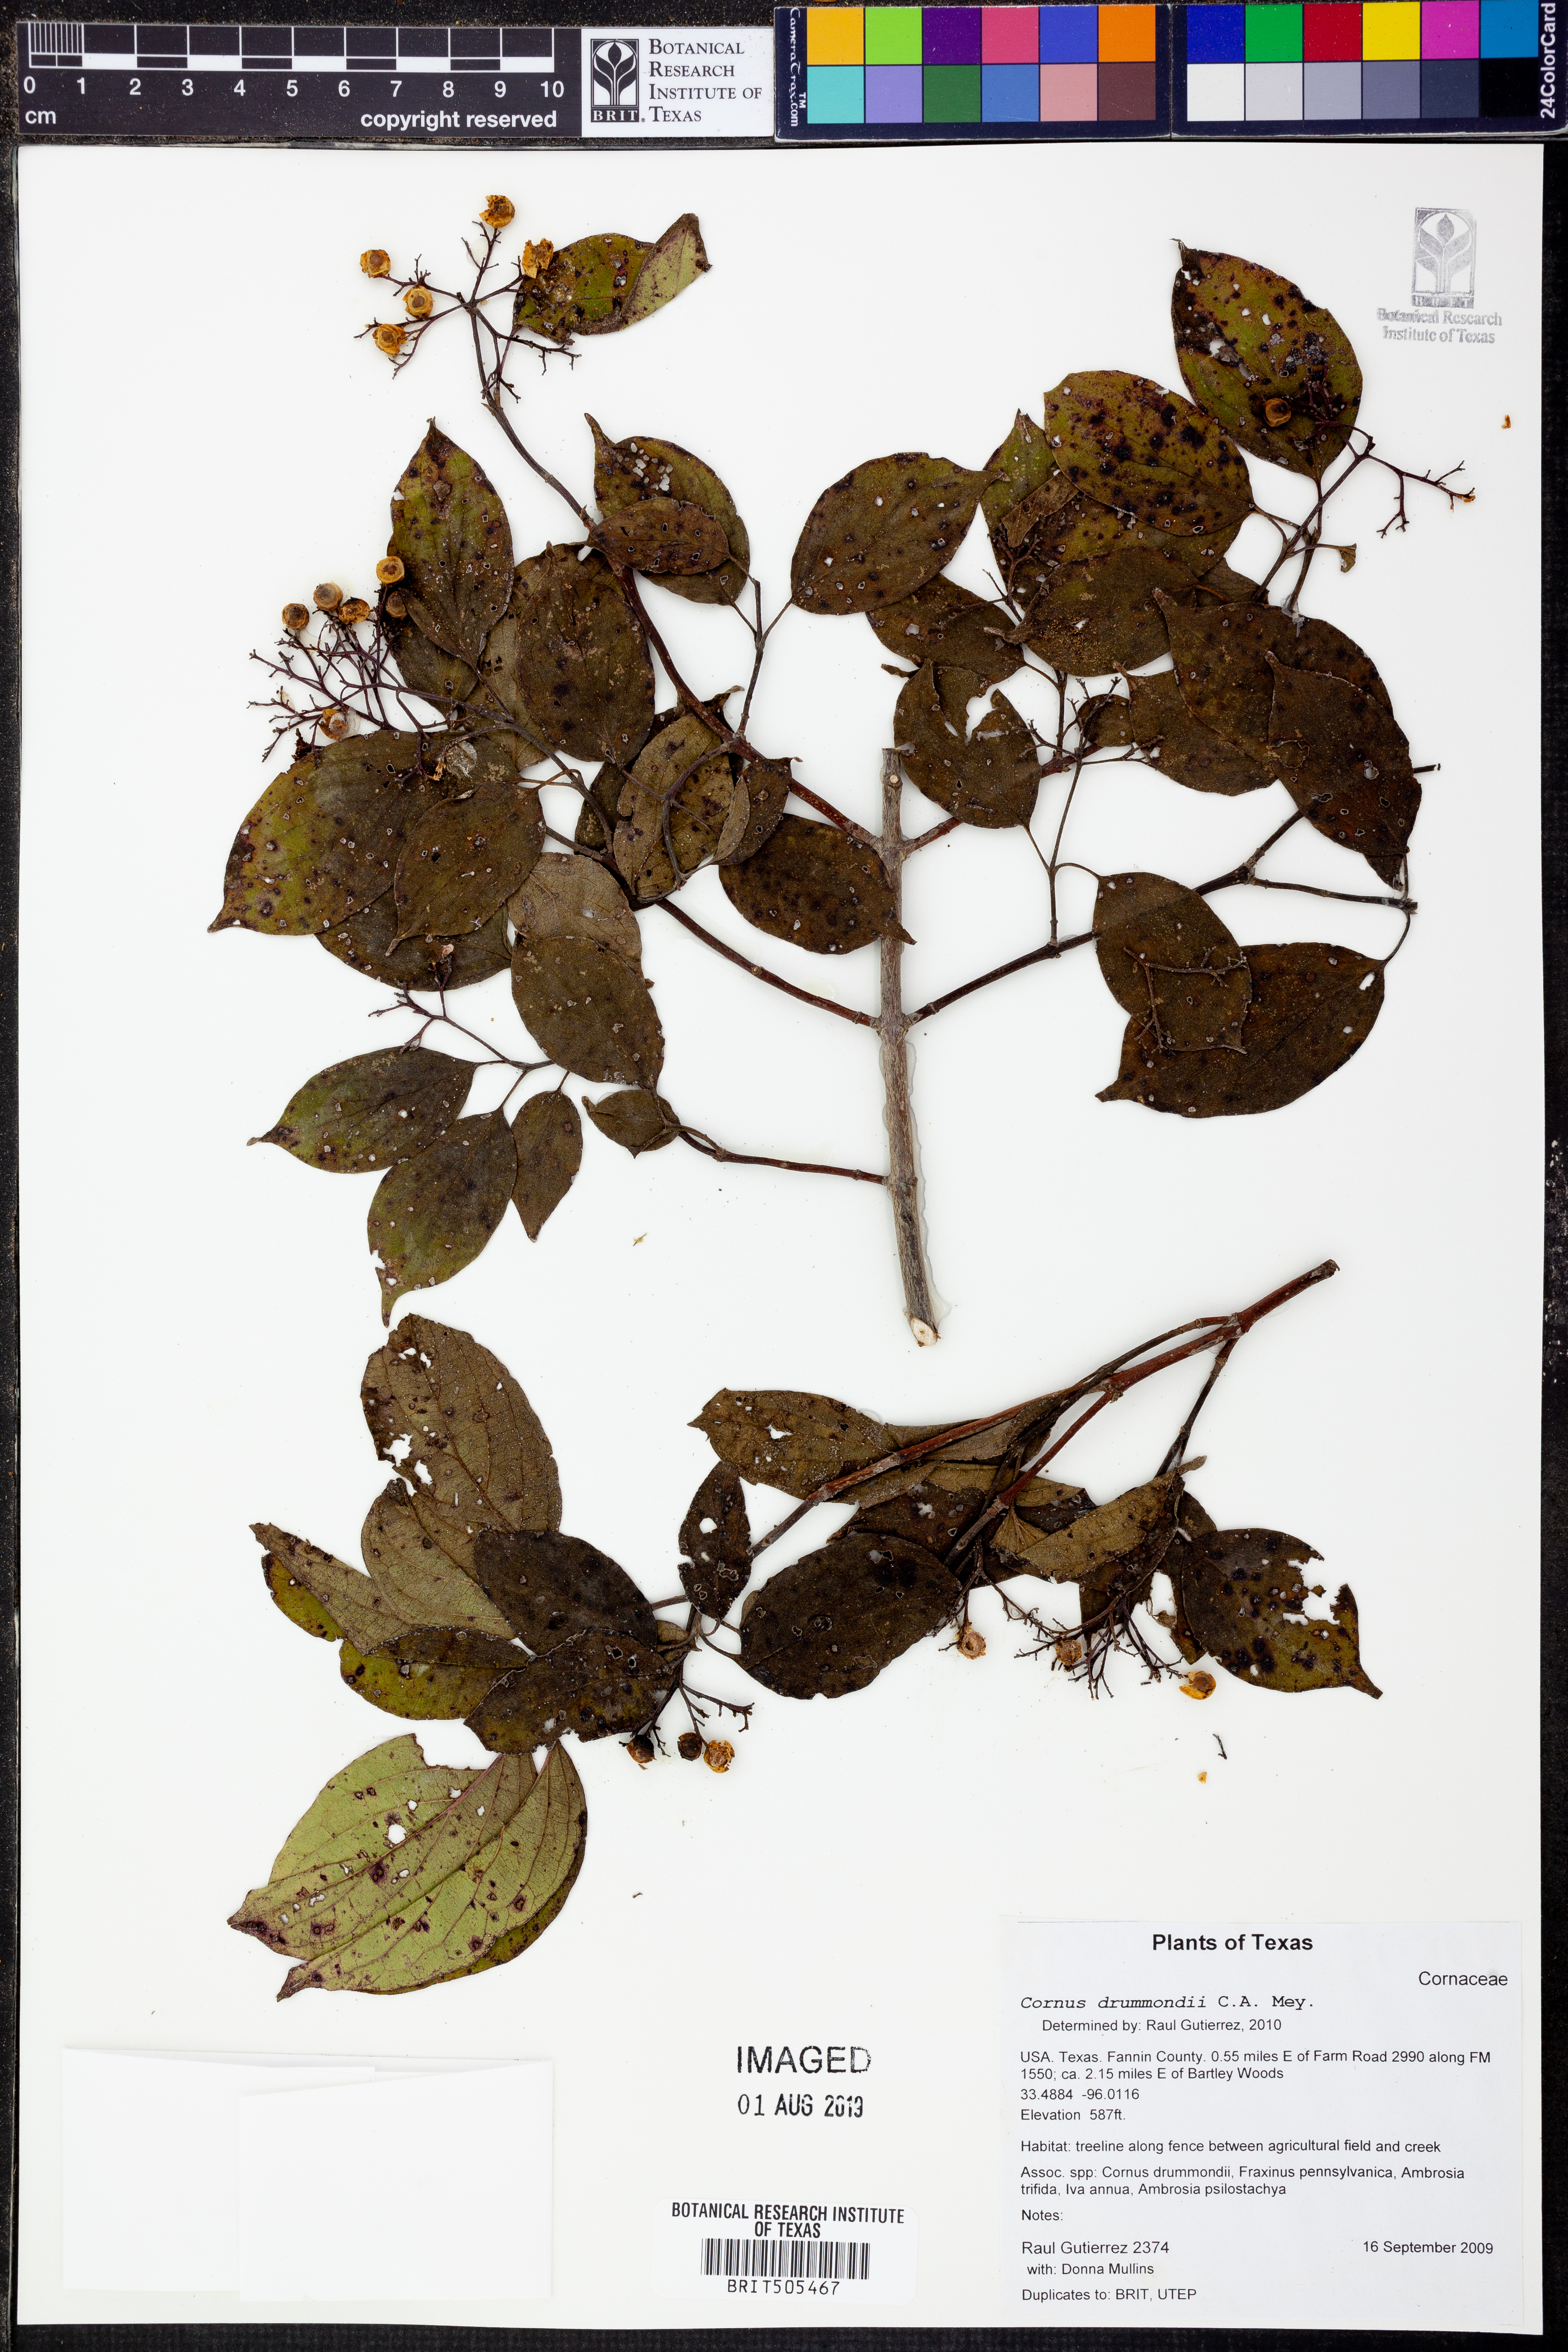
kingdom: Plantae
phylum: Tracheophyta
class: Magnoliopsida
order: Cornales
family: Cornaceae
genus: Cornus
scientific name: Cornus drummondii
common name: Rough-leaf dogwood
